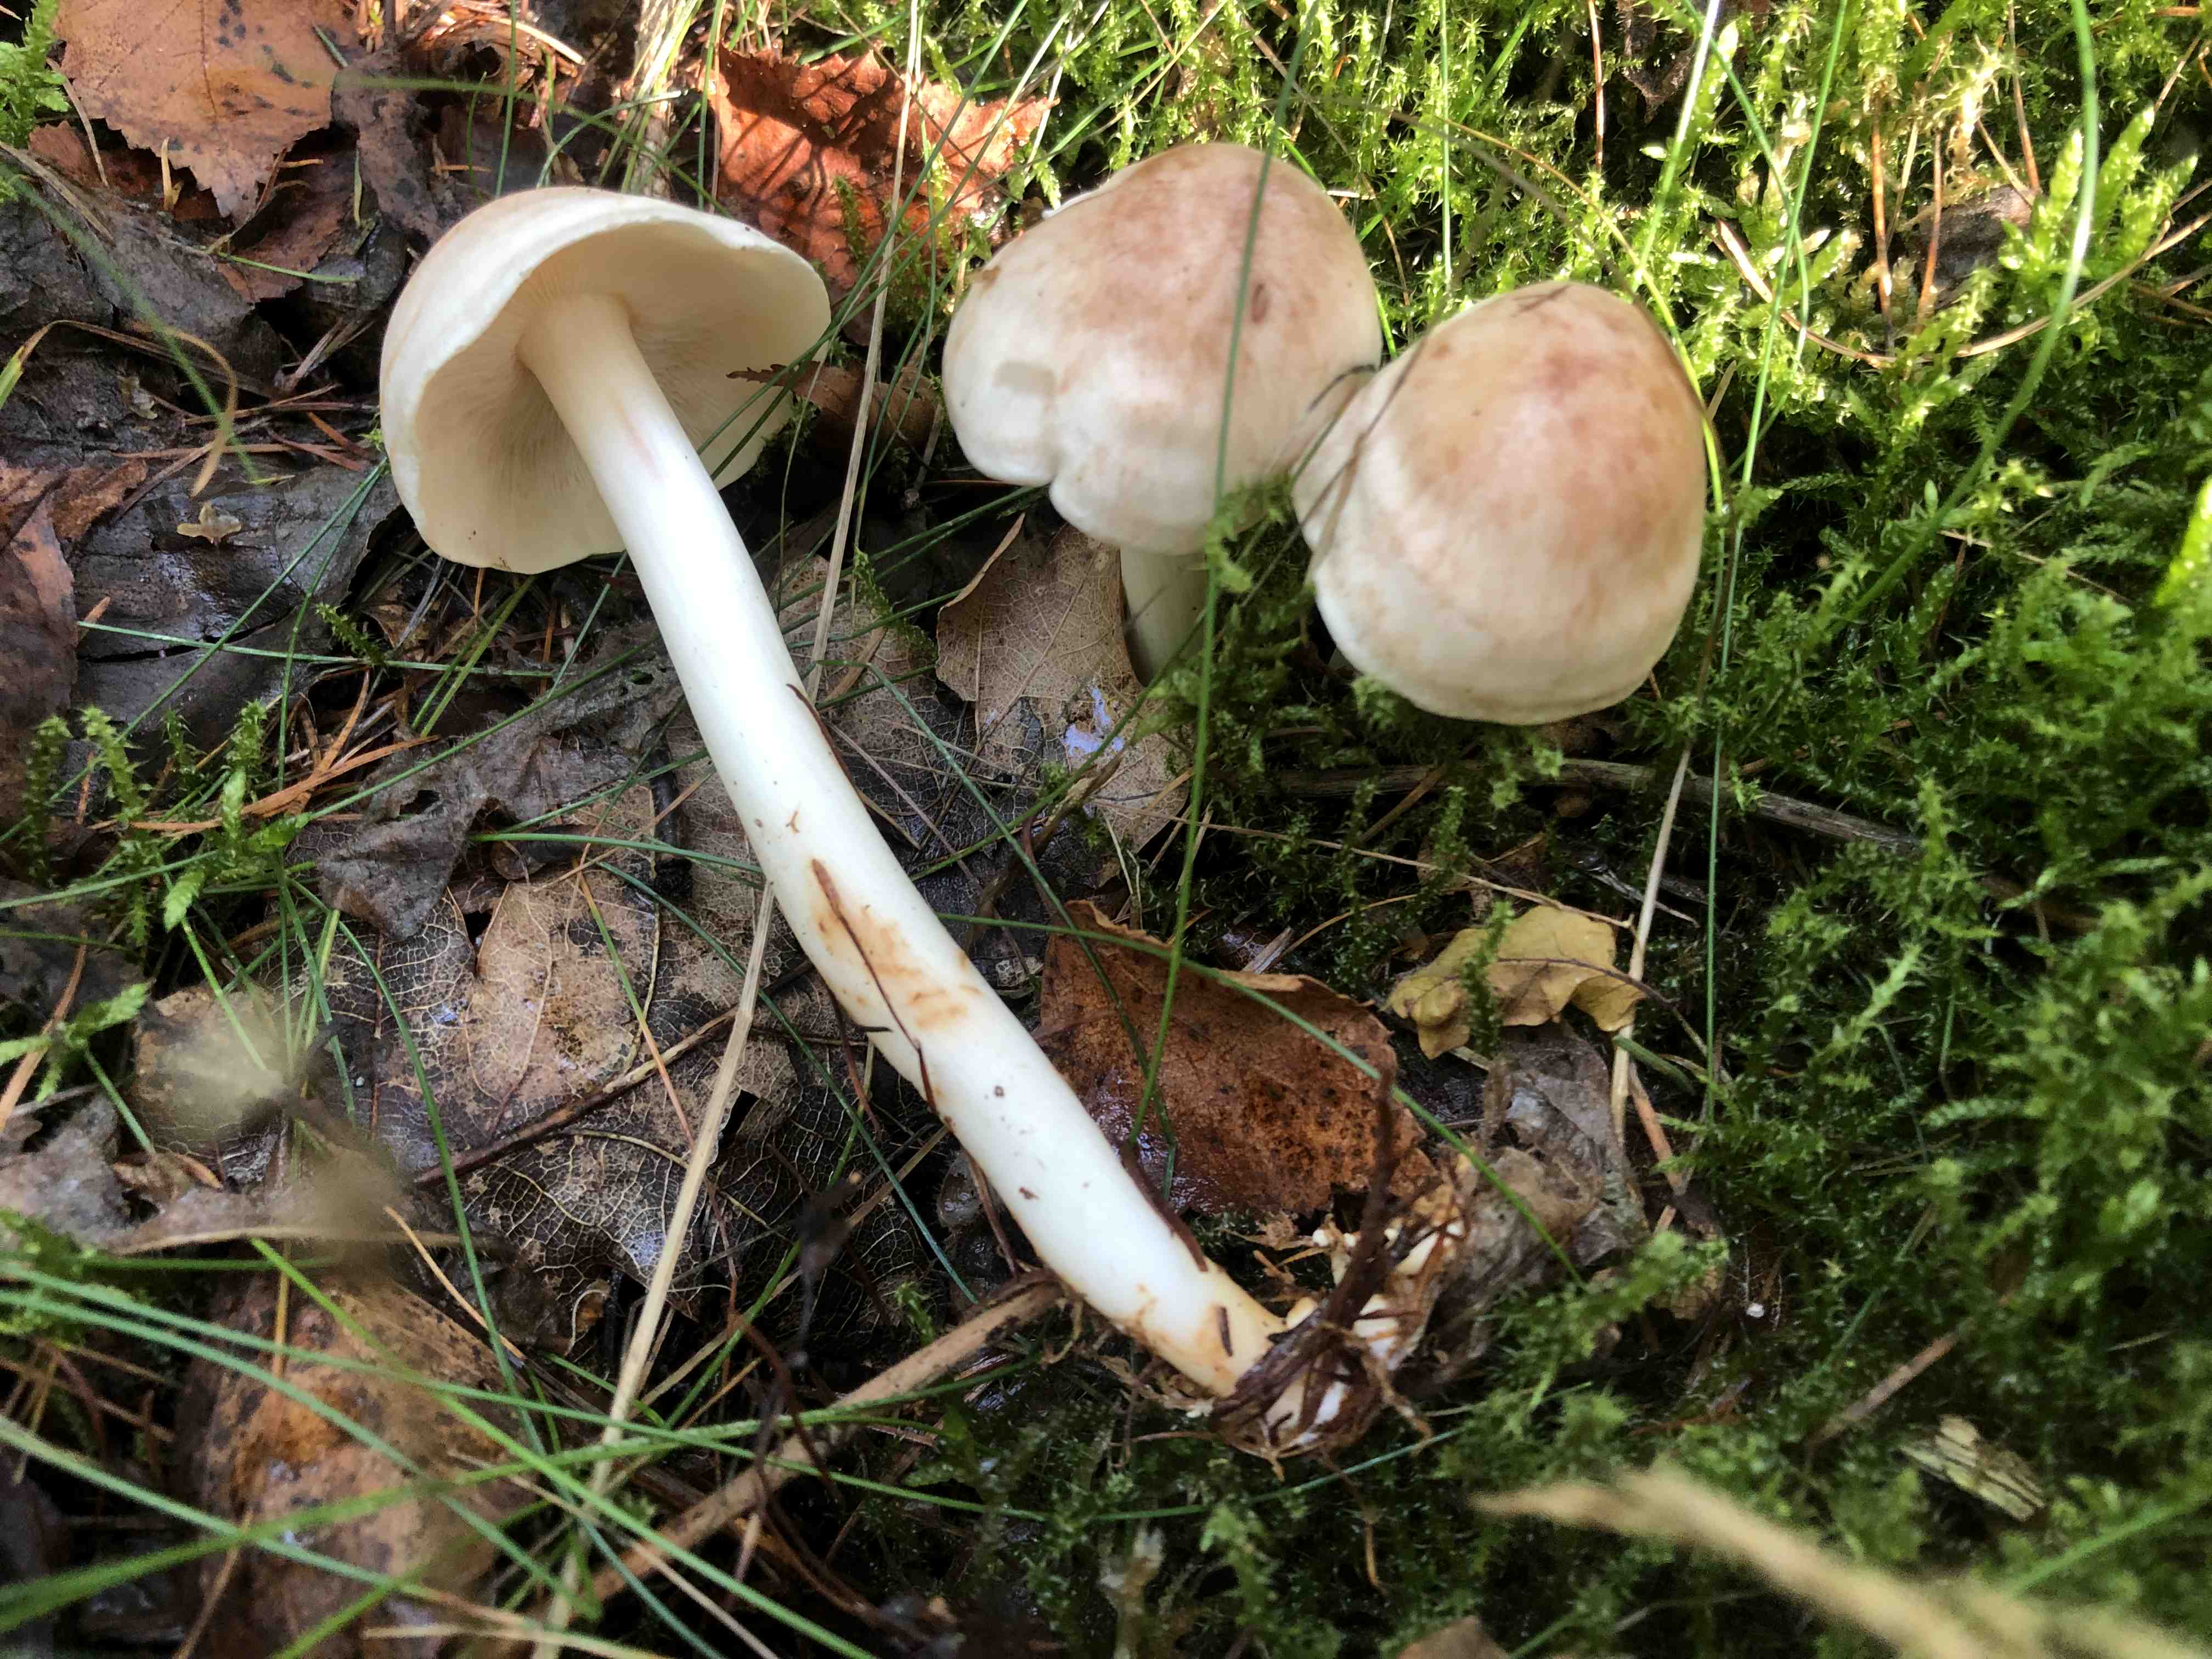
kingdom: Fungi
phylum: Basidiomycota
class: Agaricomycetes
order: Agaricales
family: Omphalotaceae
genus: Rhodocollybia
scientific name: Rhodocollybia maculata
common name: plettet fladhat
